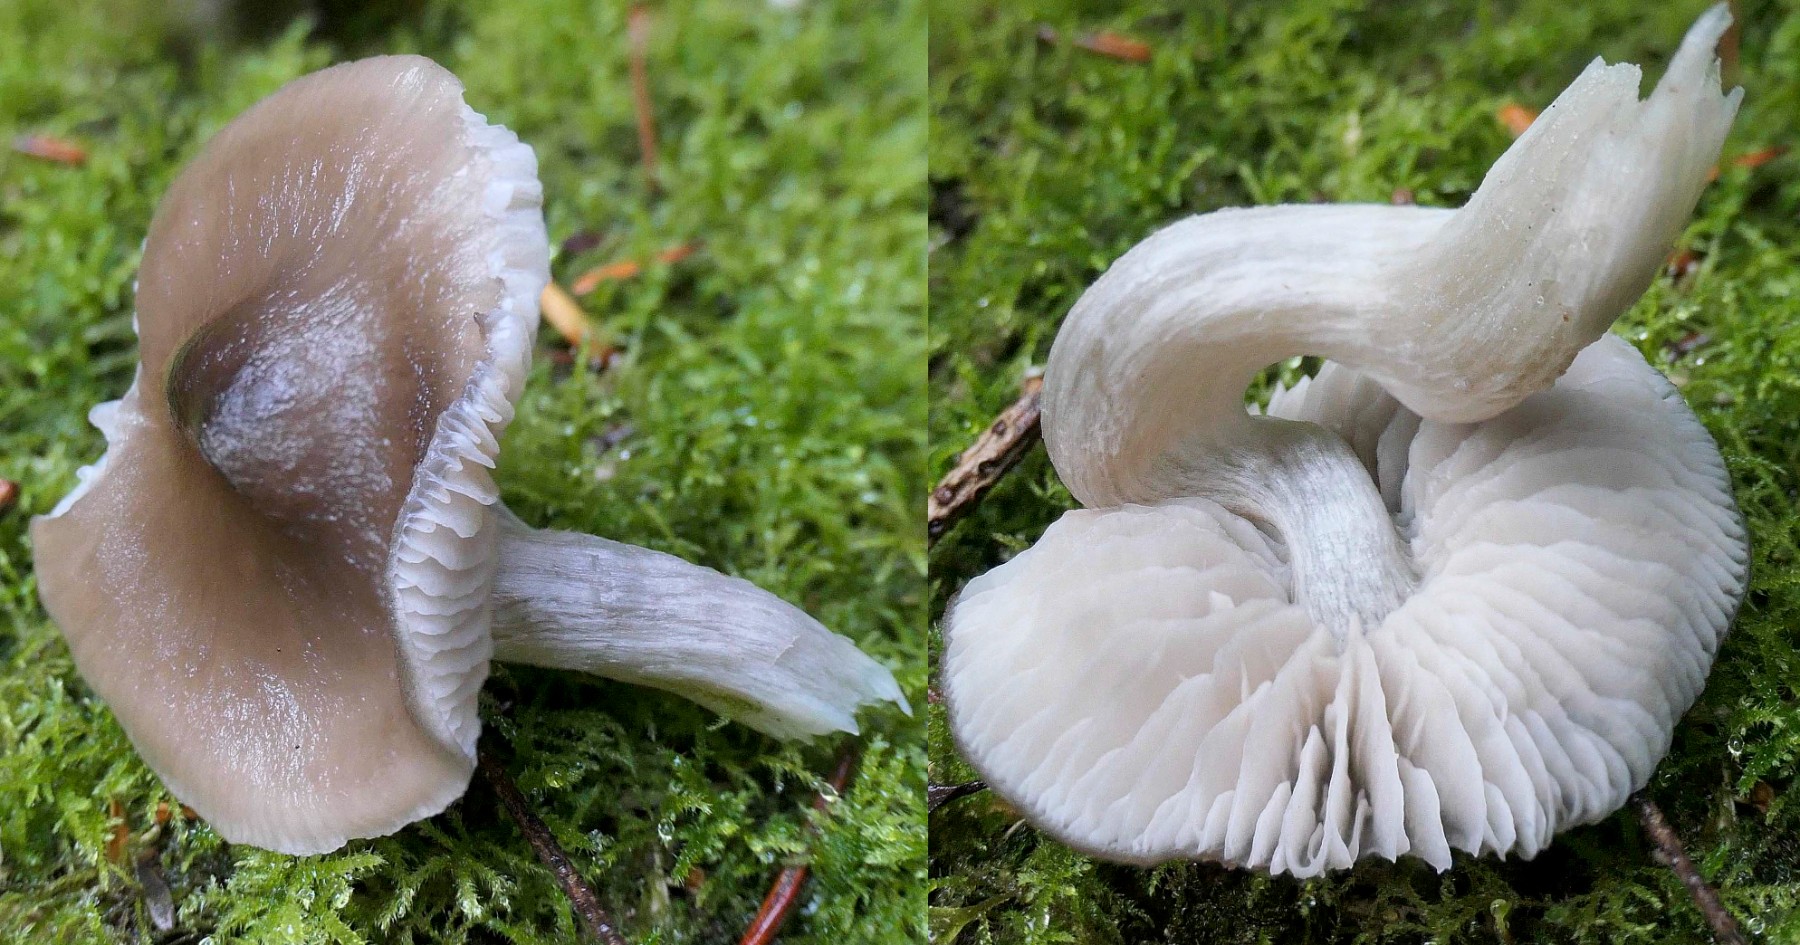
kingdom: Fungi
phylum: Basidiomycota
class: Agaricomycetes
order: Agaricales
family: Entolomataceae
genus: Entocybe
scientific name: Entocybe turbida
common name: plantage-rødblad
